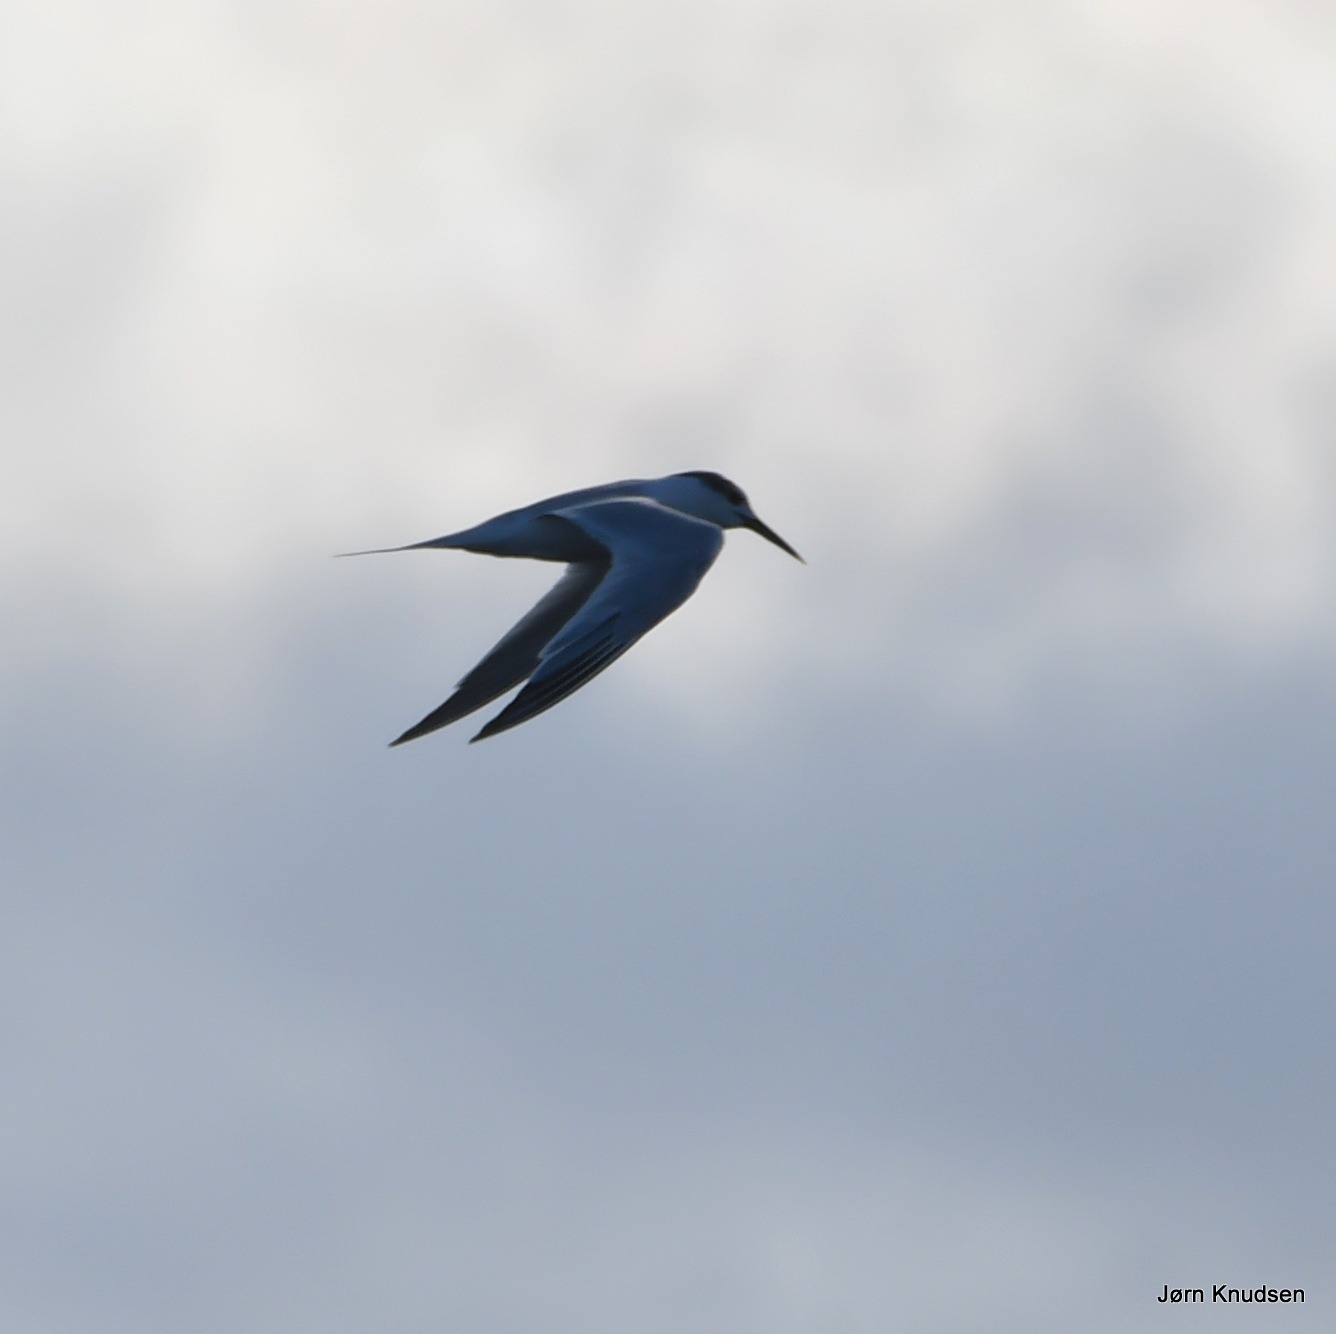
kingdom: Animalia
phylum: Chordata
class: Aves
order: Charadriiformes
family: Laridae
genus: Thalasseus
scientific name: Thalasseus sandvicensis
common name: Splitterne
